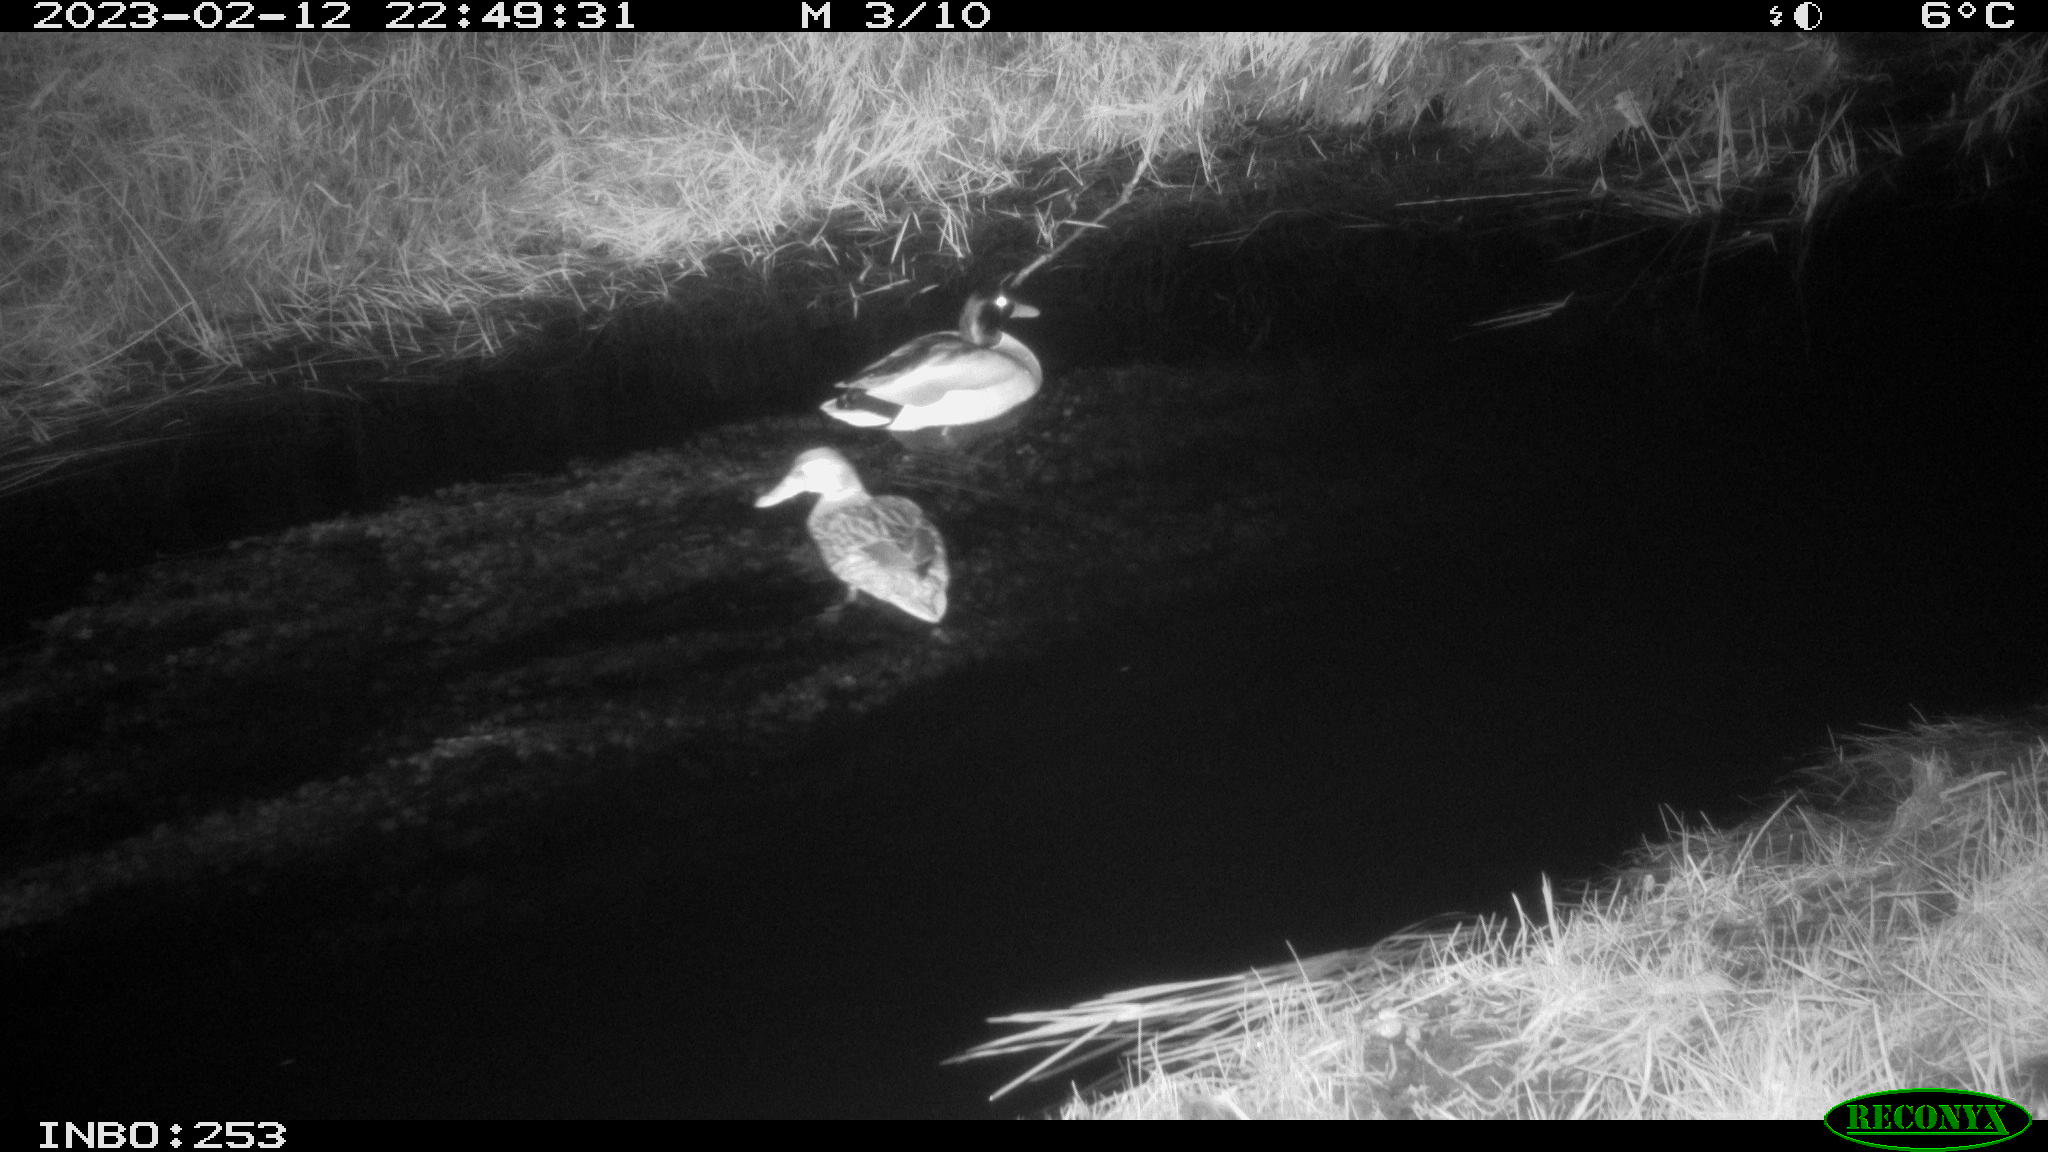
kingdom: Animalia
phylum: Chordata
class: Aves
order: Anseriformes
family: Anatidae
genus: Anas
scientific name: Anas
